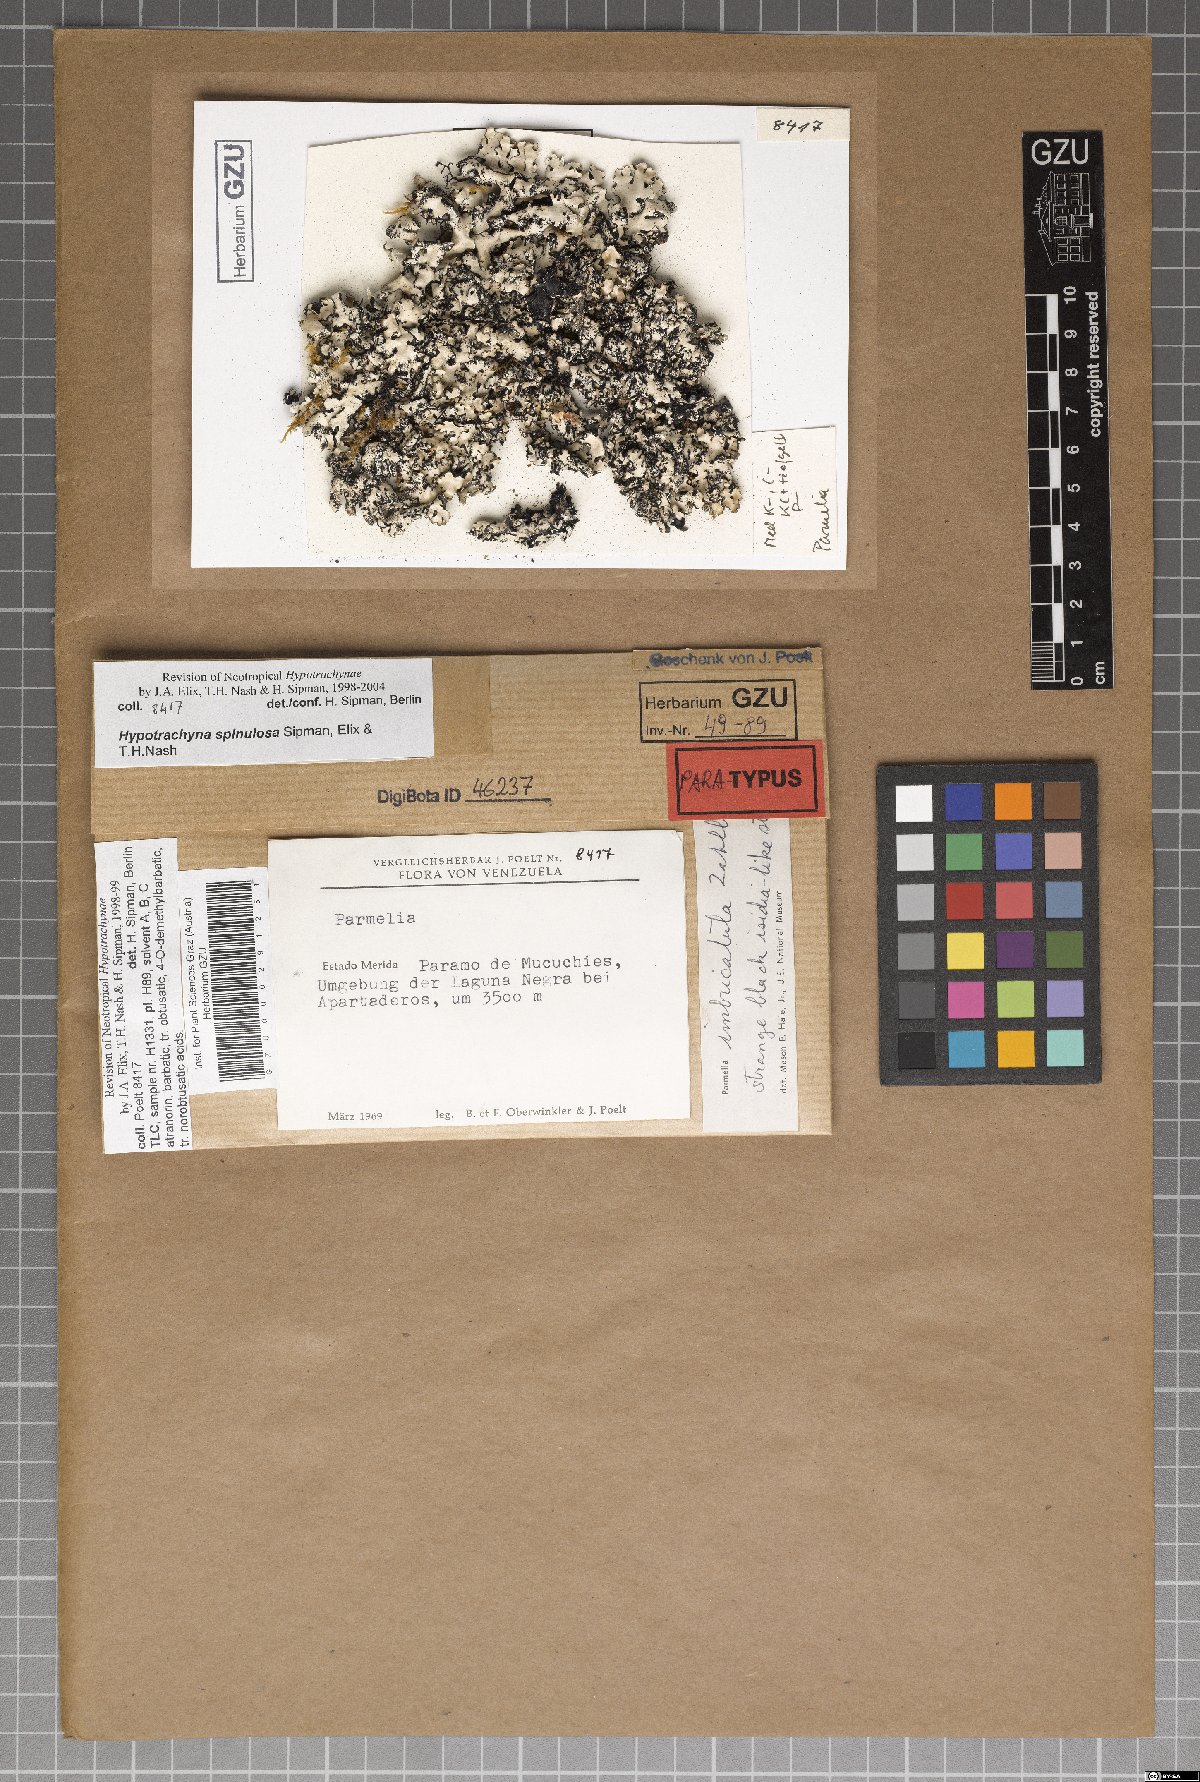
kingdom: Fungi
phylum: Ascomycota
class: Lecanoromycetes
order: Lecanorales
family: Parmeliaceae
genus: Hypotrachyna
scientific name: Hypotrachyna spinulosa
